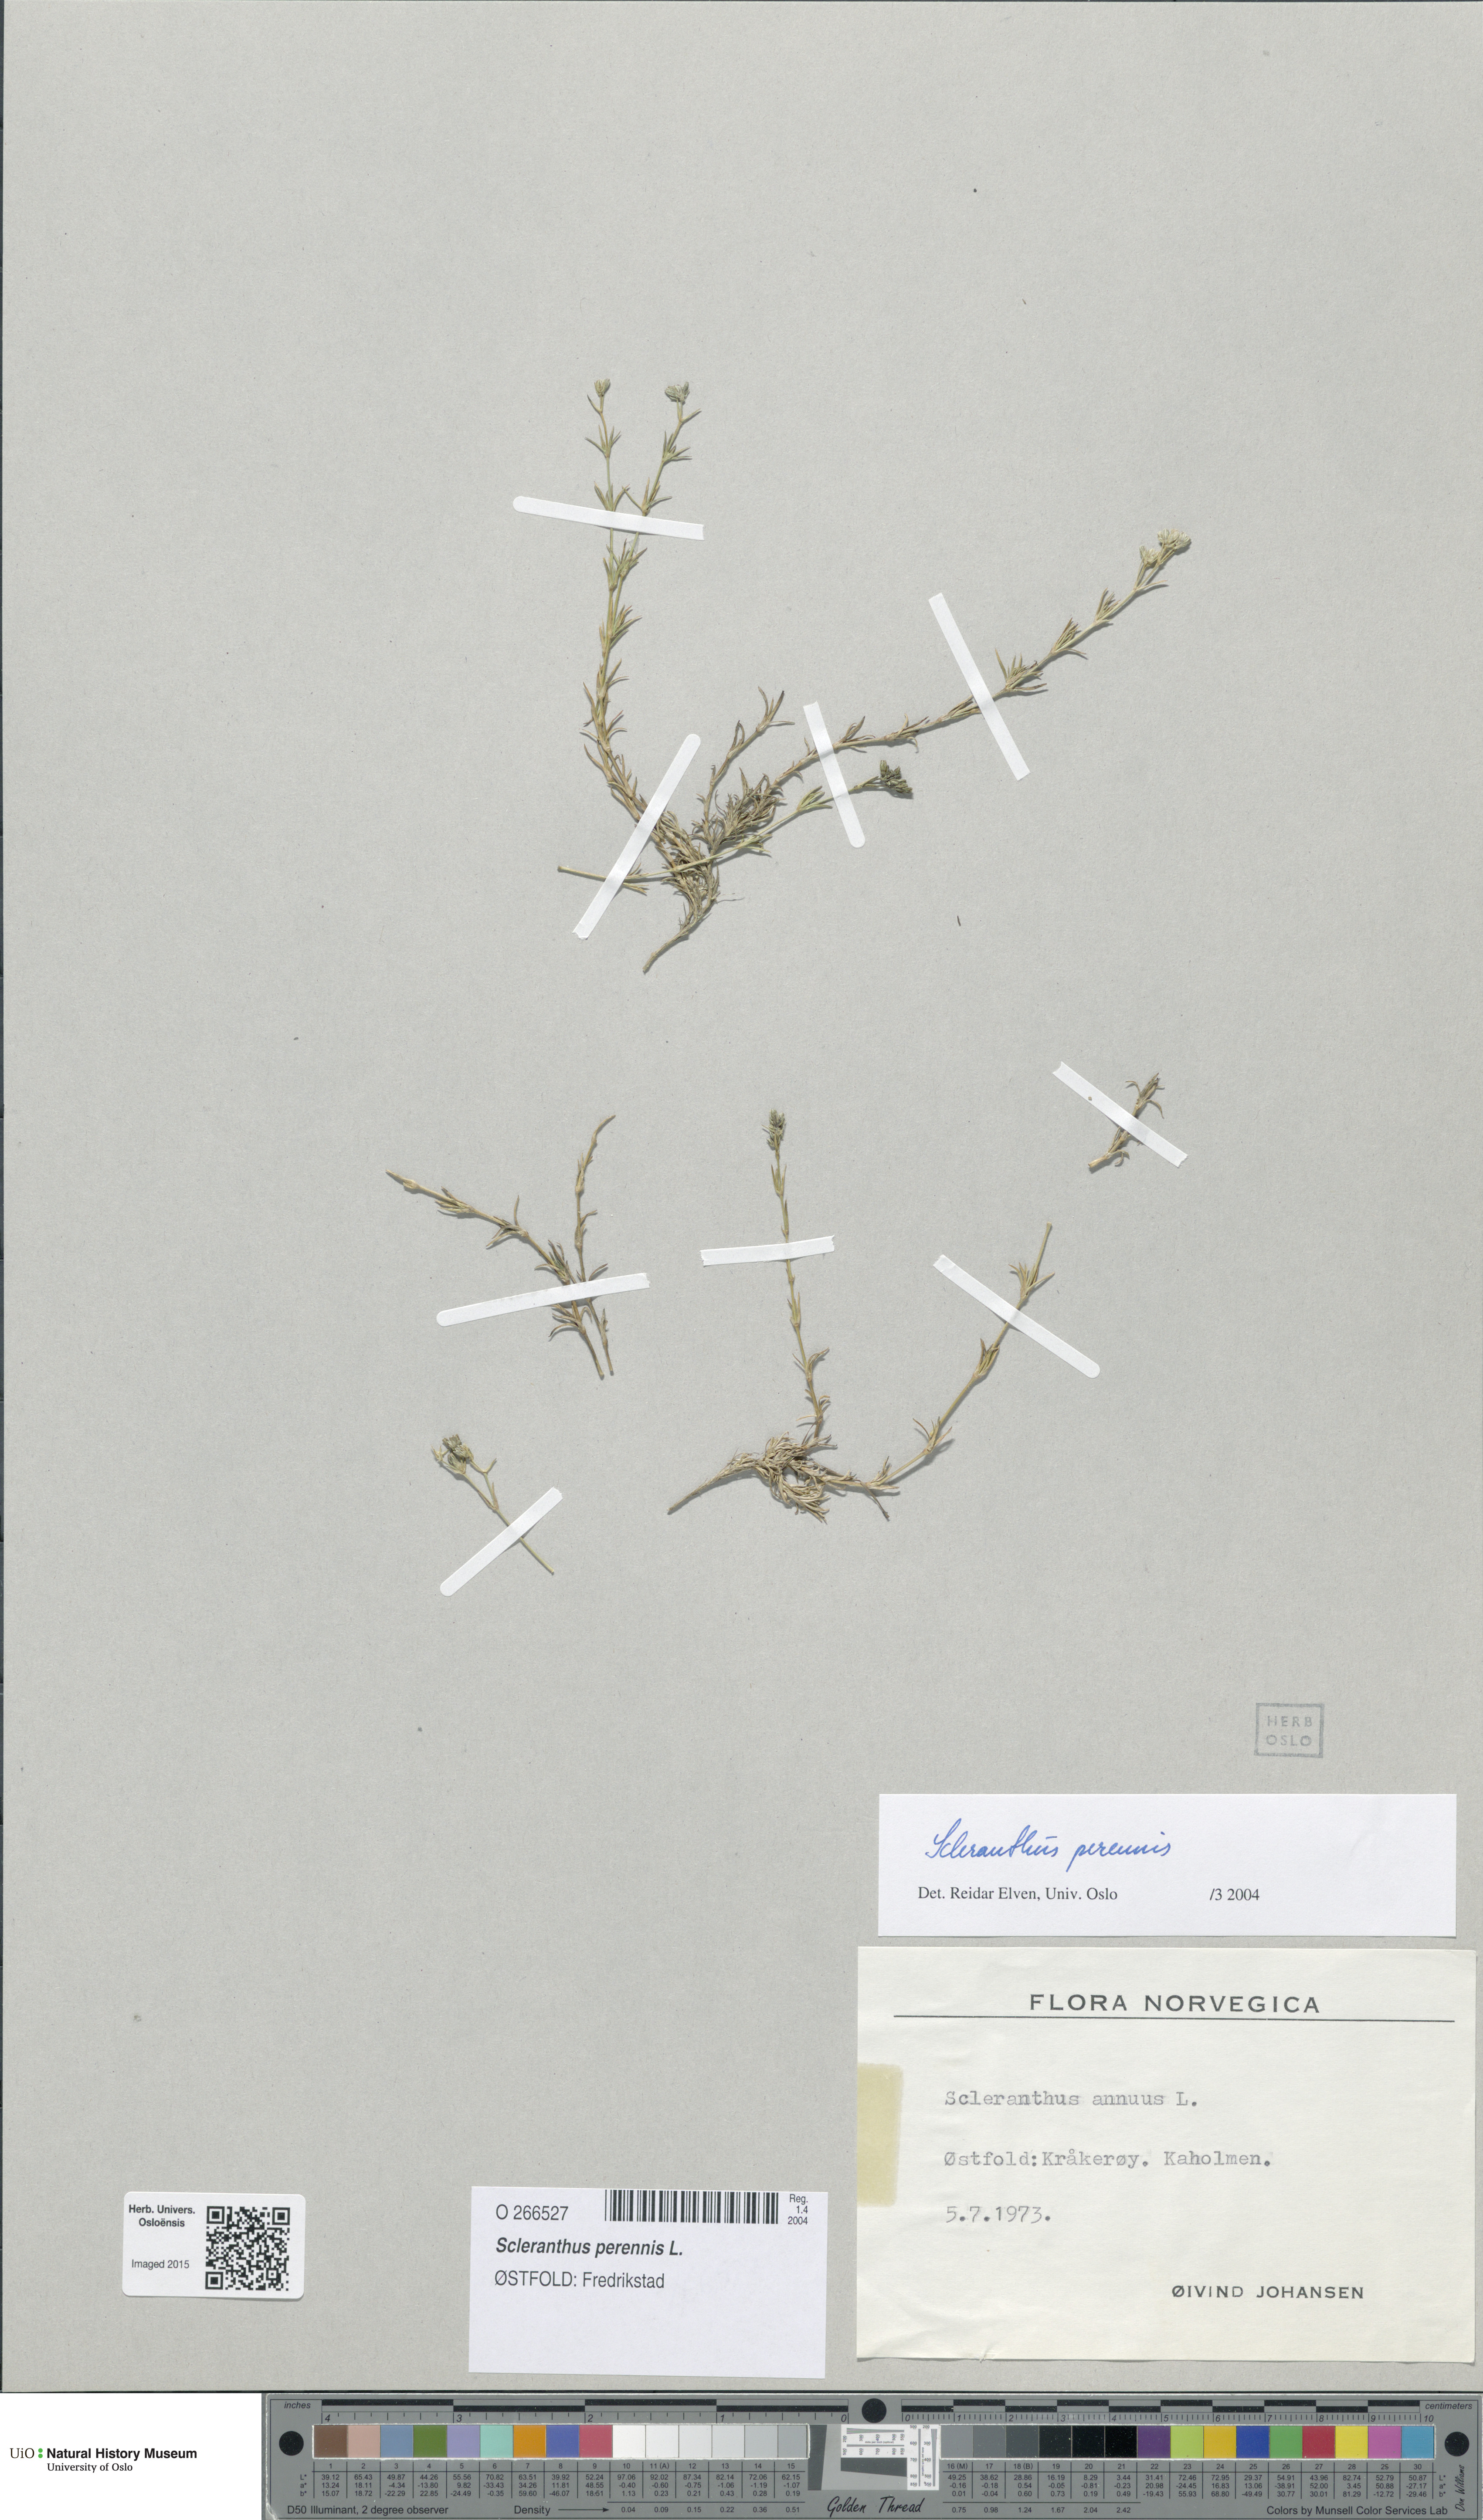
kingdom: Plantae
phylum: Tracheophyta
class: Magnoliopsida
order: Caryophyllales
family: Caryophyllaceae
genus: Scleranthus
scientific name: Scleranthus perennis
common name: Perennial knawel
